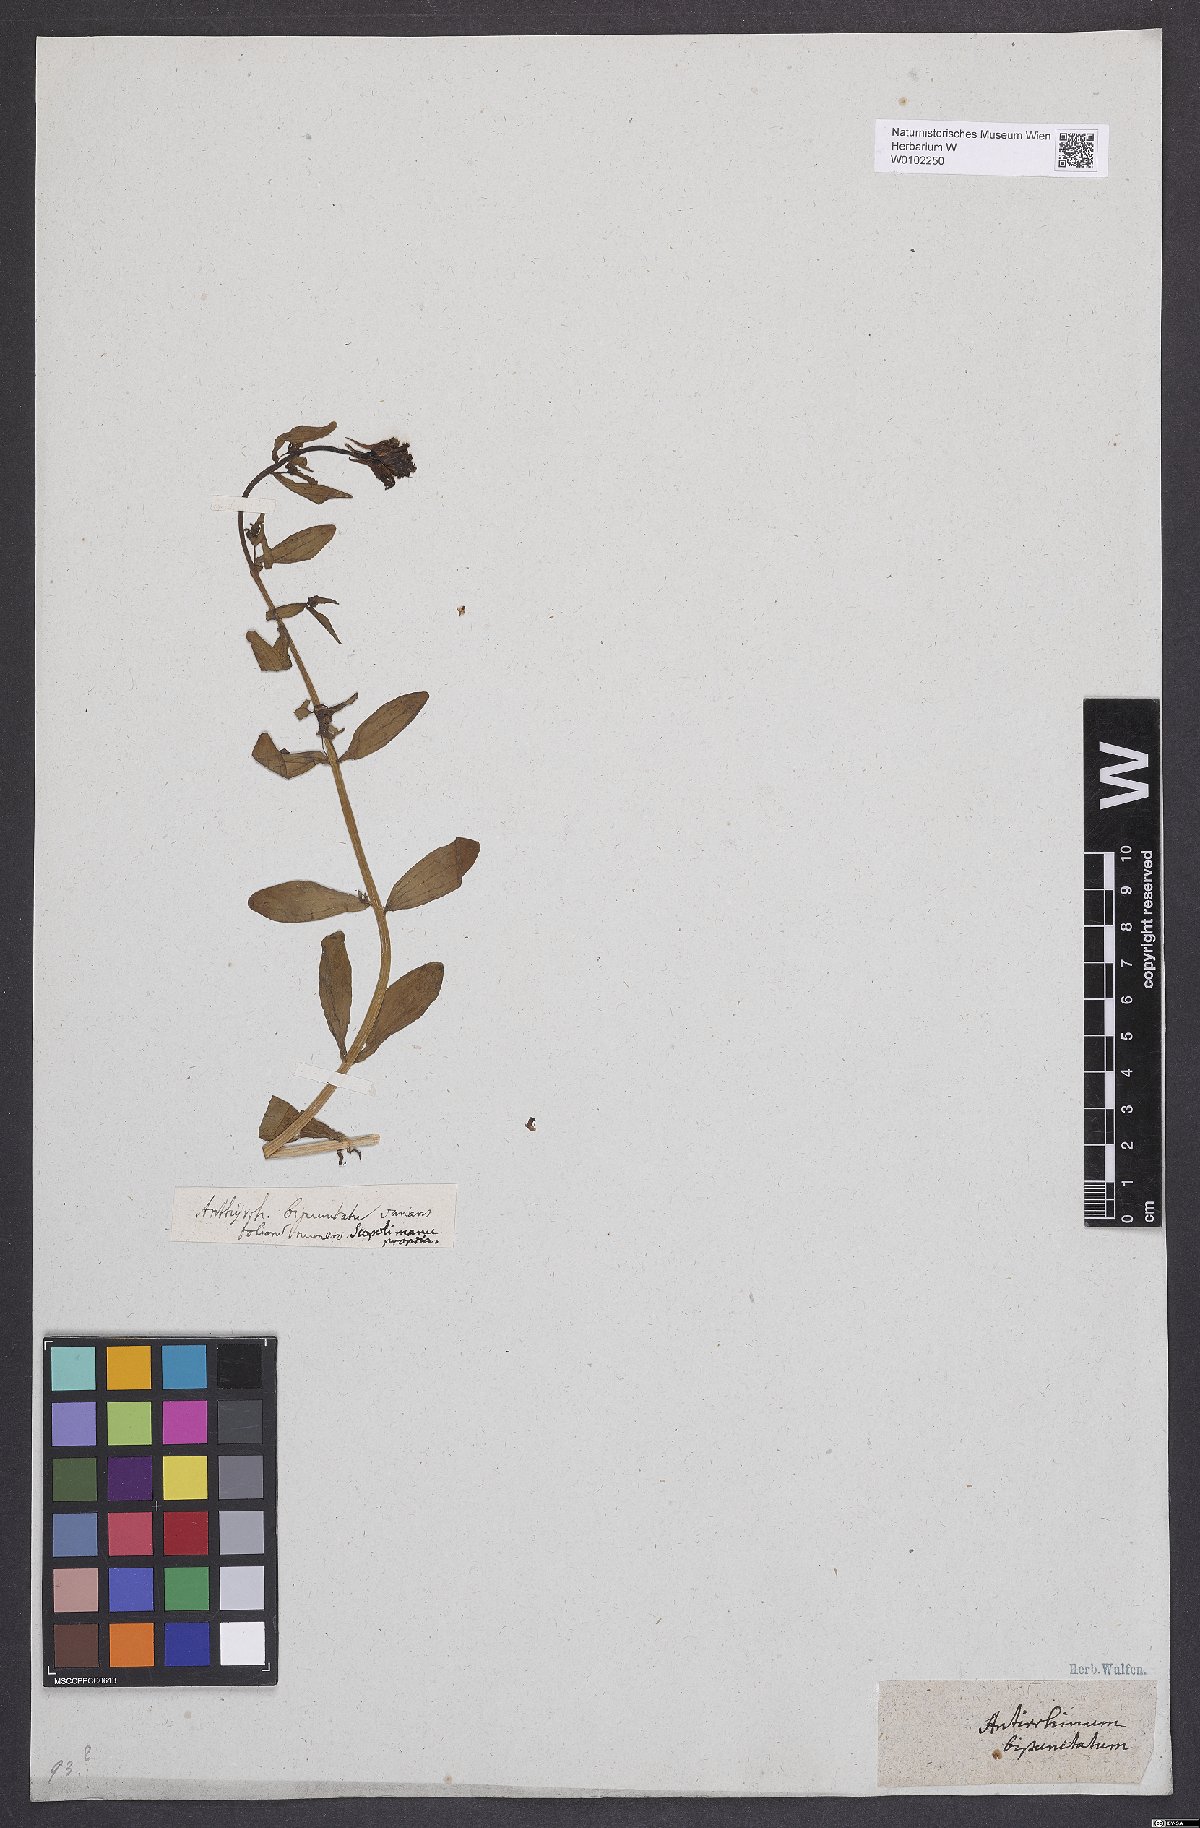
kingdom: Plantae
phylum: Tracheophyta
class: Magnoliopsida
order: Lamiales
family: Plantaginaceae
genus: Linaria
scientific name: Linaria vulgaris
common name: Butter and eggs
